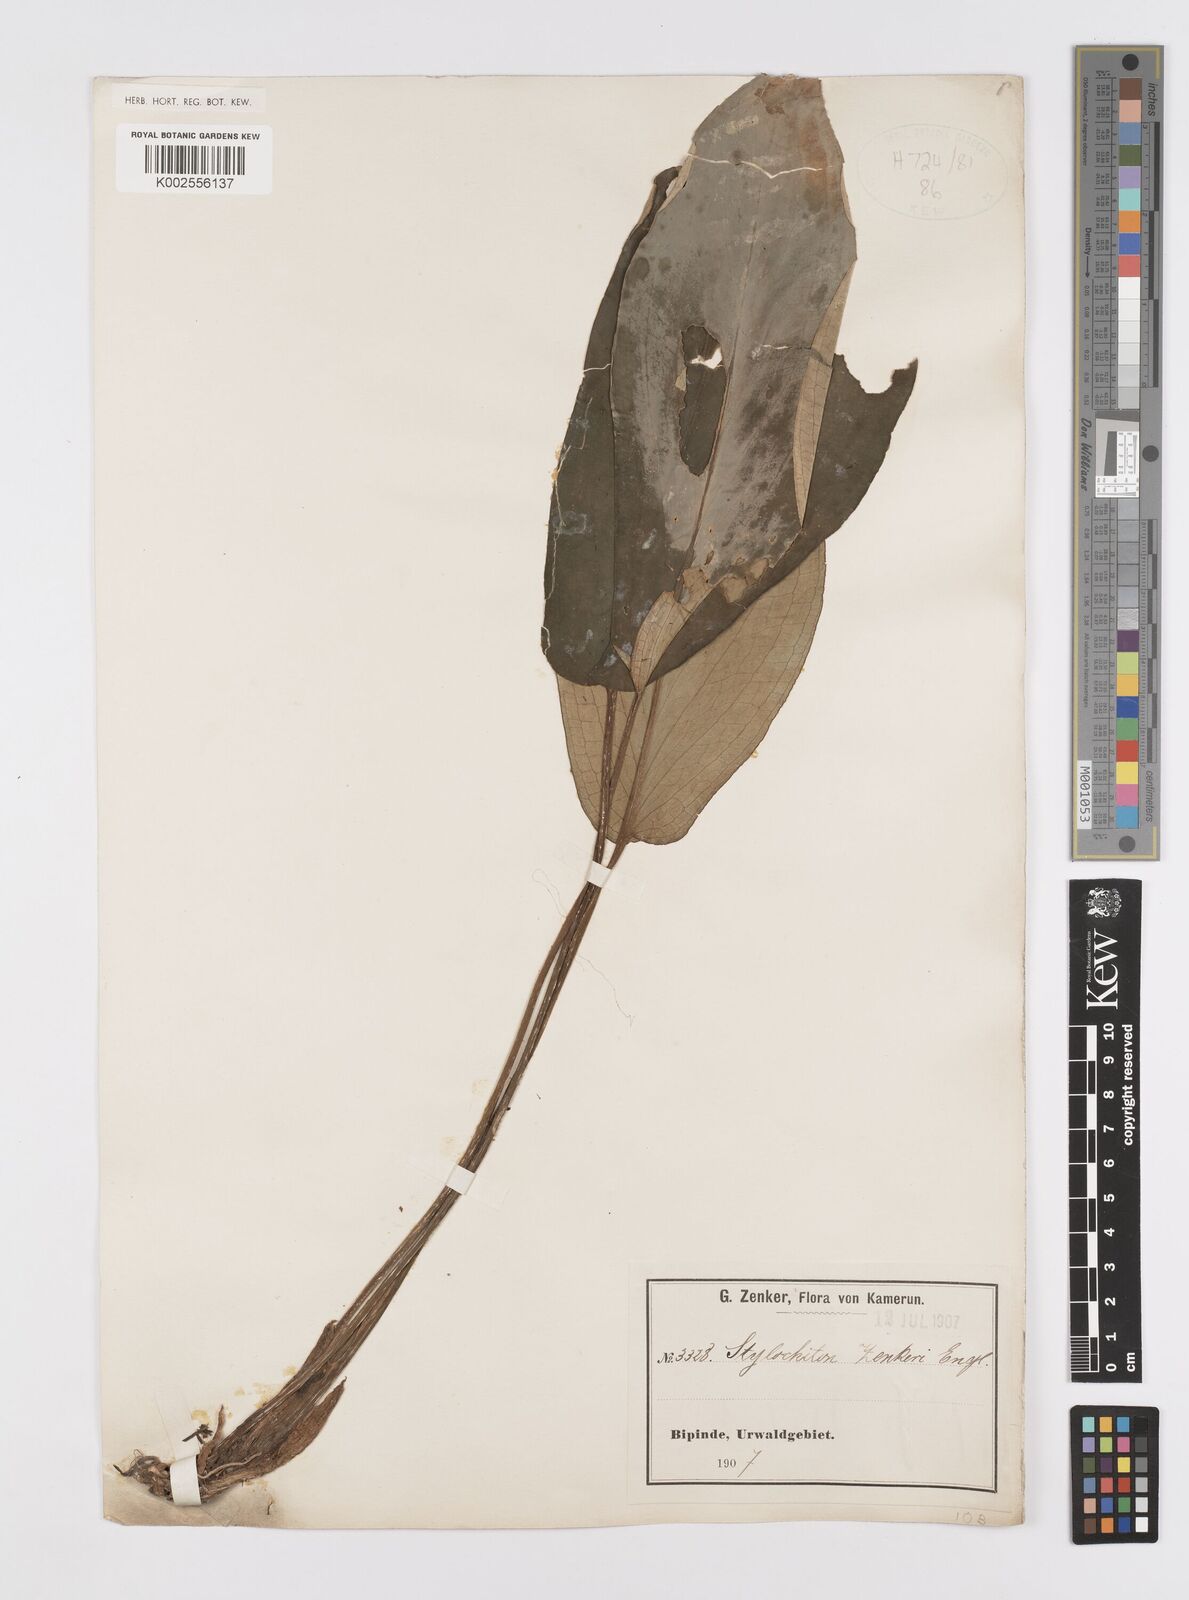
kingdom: Plantae
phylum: Tracheophyta
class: Liliopsida
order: Alismatales
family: Araceae
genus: Stylochaeton
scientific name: Stylochaeton zenkeri
